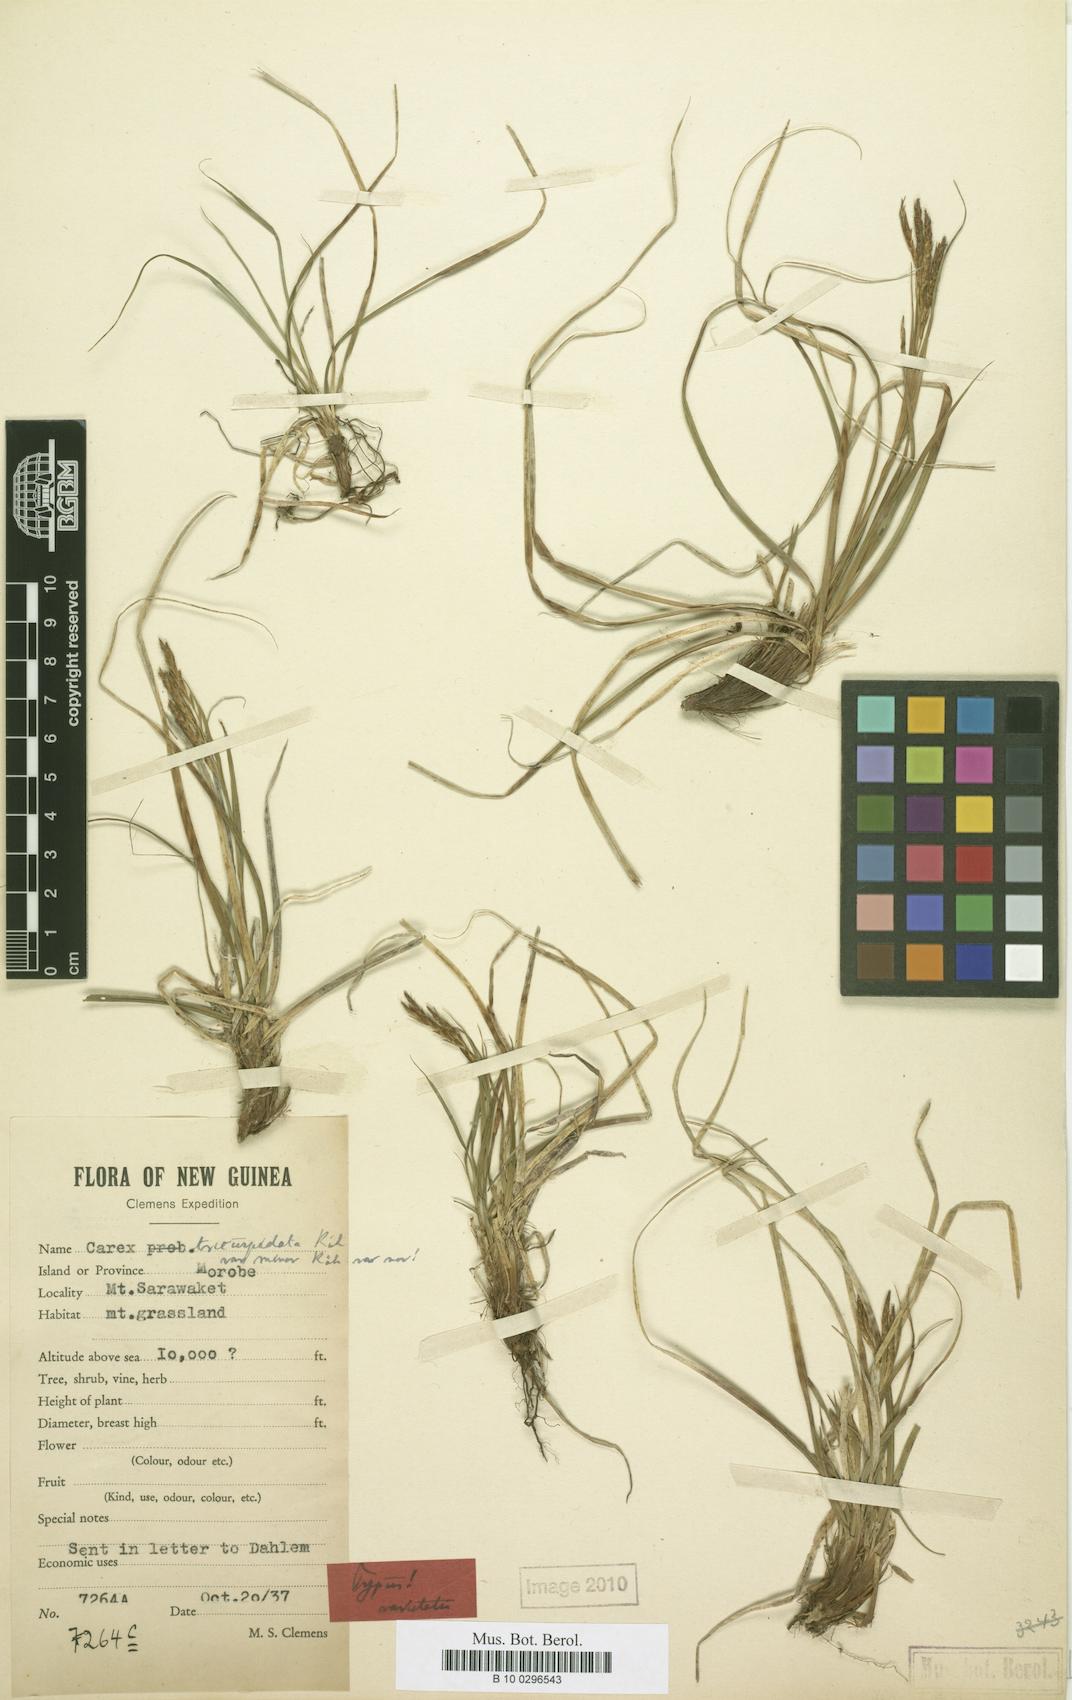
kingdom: Plantae
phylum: Tracheophyta
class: Liliopsida
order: Poales
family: Cyperaceae
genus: Carex
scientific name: Carex brachyanthera
